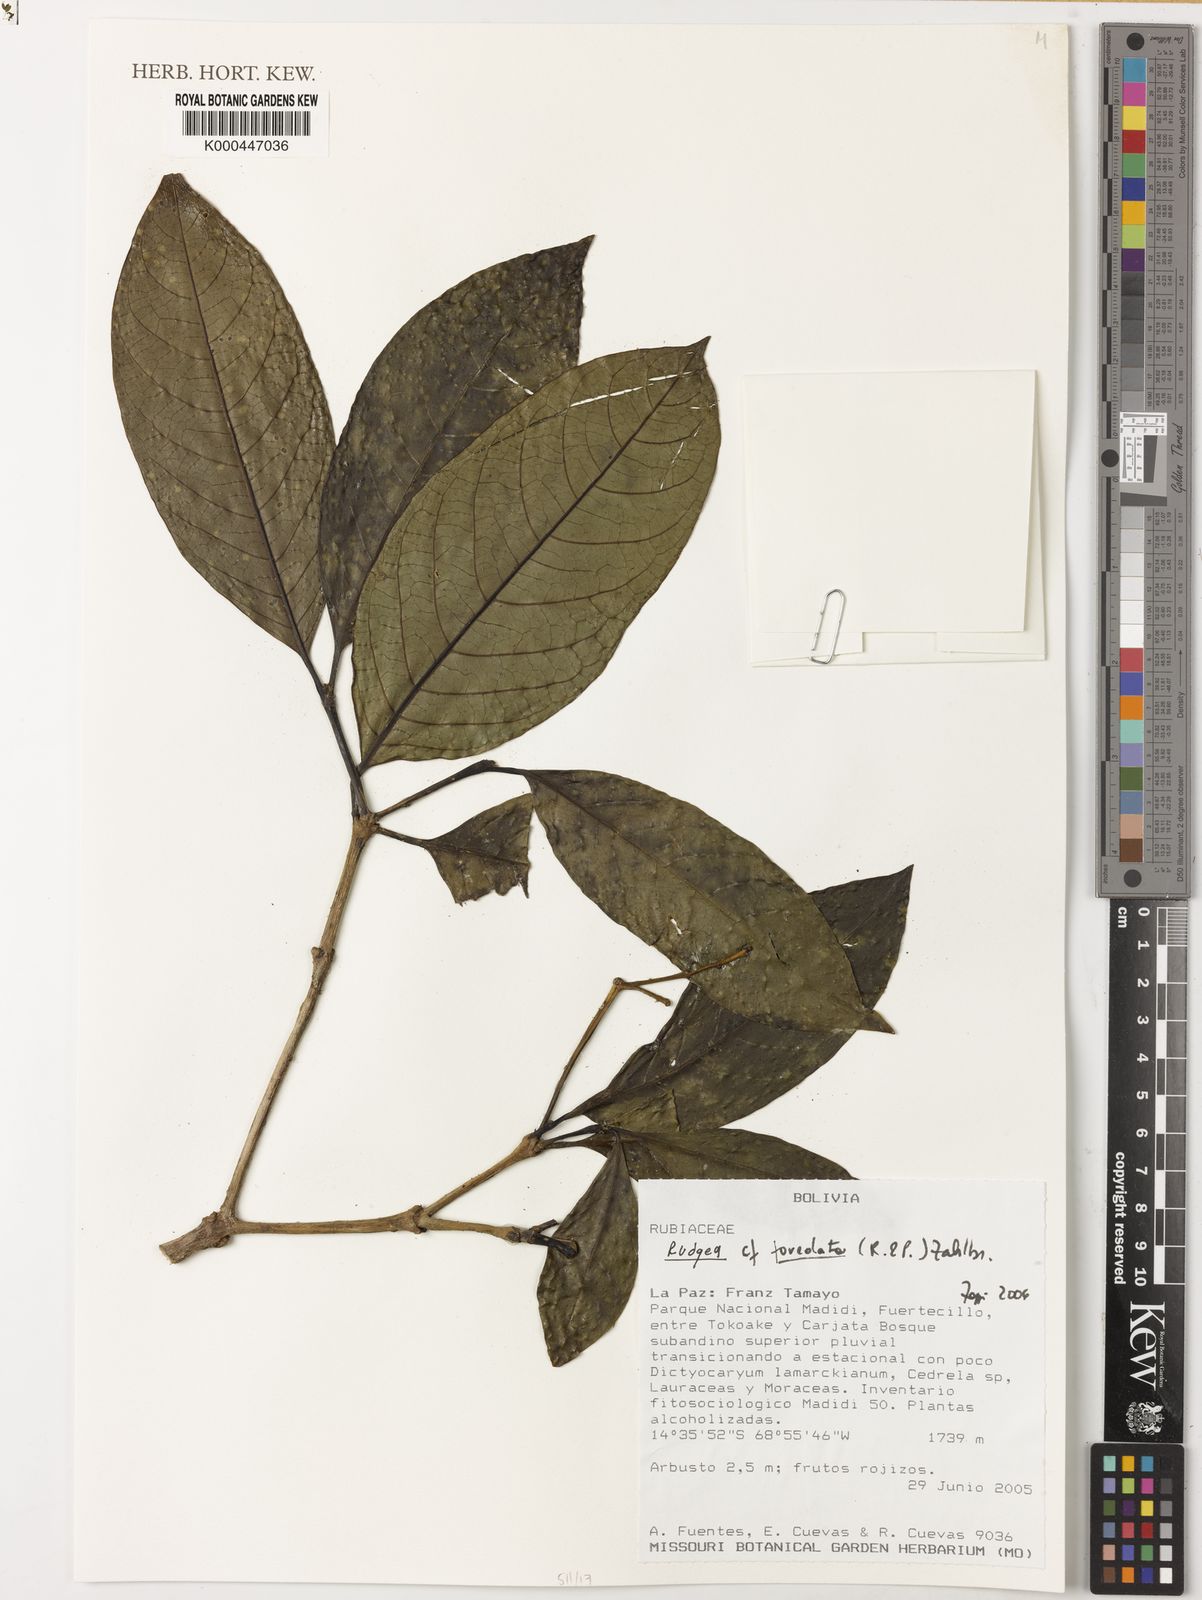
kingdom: Plantae
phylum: Tracheophyta
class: Magnoliopsida
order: Gentianales
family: Rubiaceae
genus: Rudgea
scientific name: Rudgea foveolata
